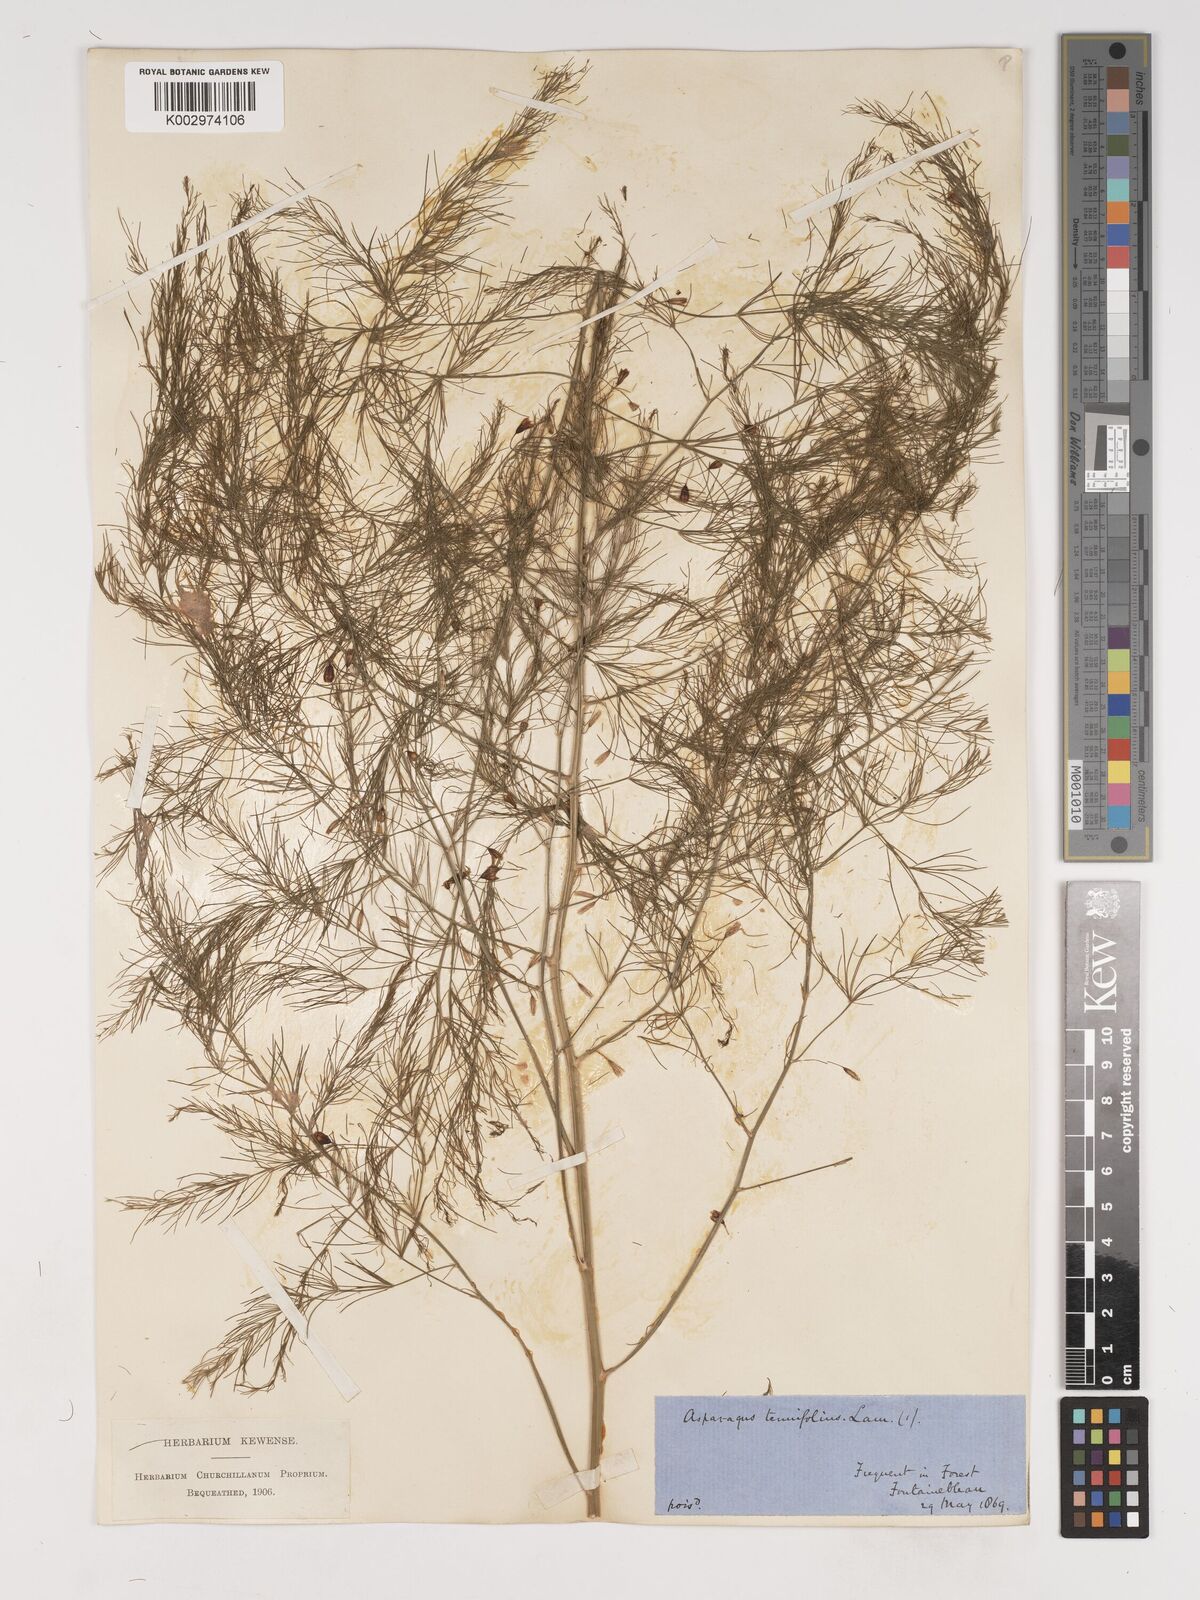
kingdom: Plantae
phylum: Tracheophyta
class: Liliopsida
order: Asparagales
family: Asparagaceae
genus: Asparagus
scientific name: Asparagus tenuifolius
